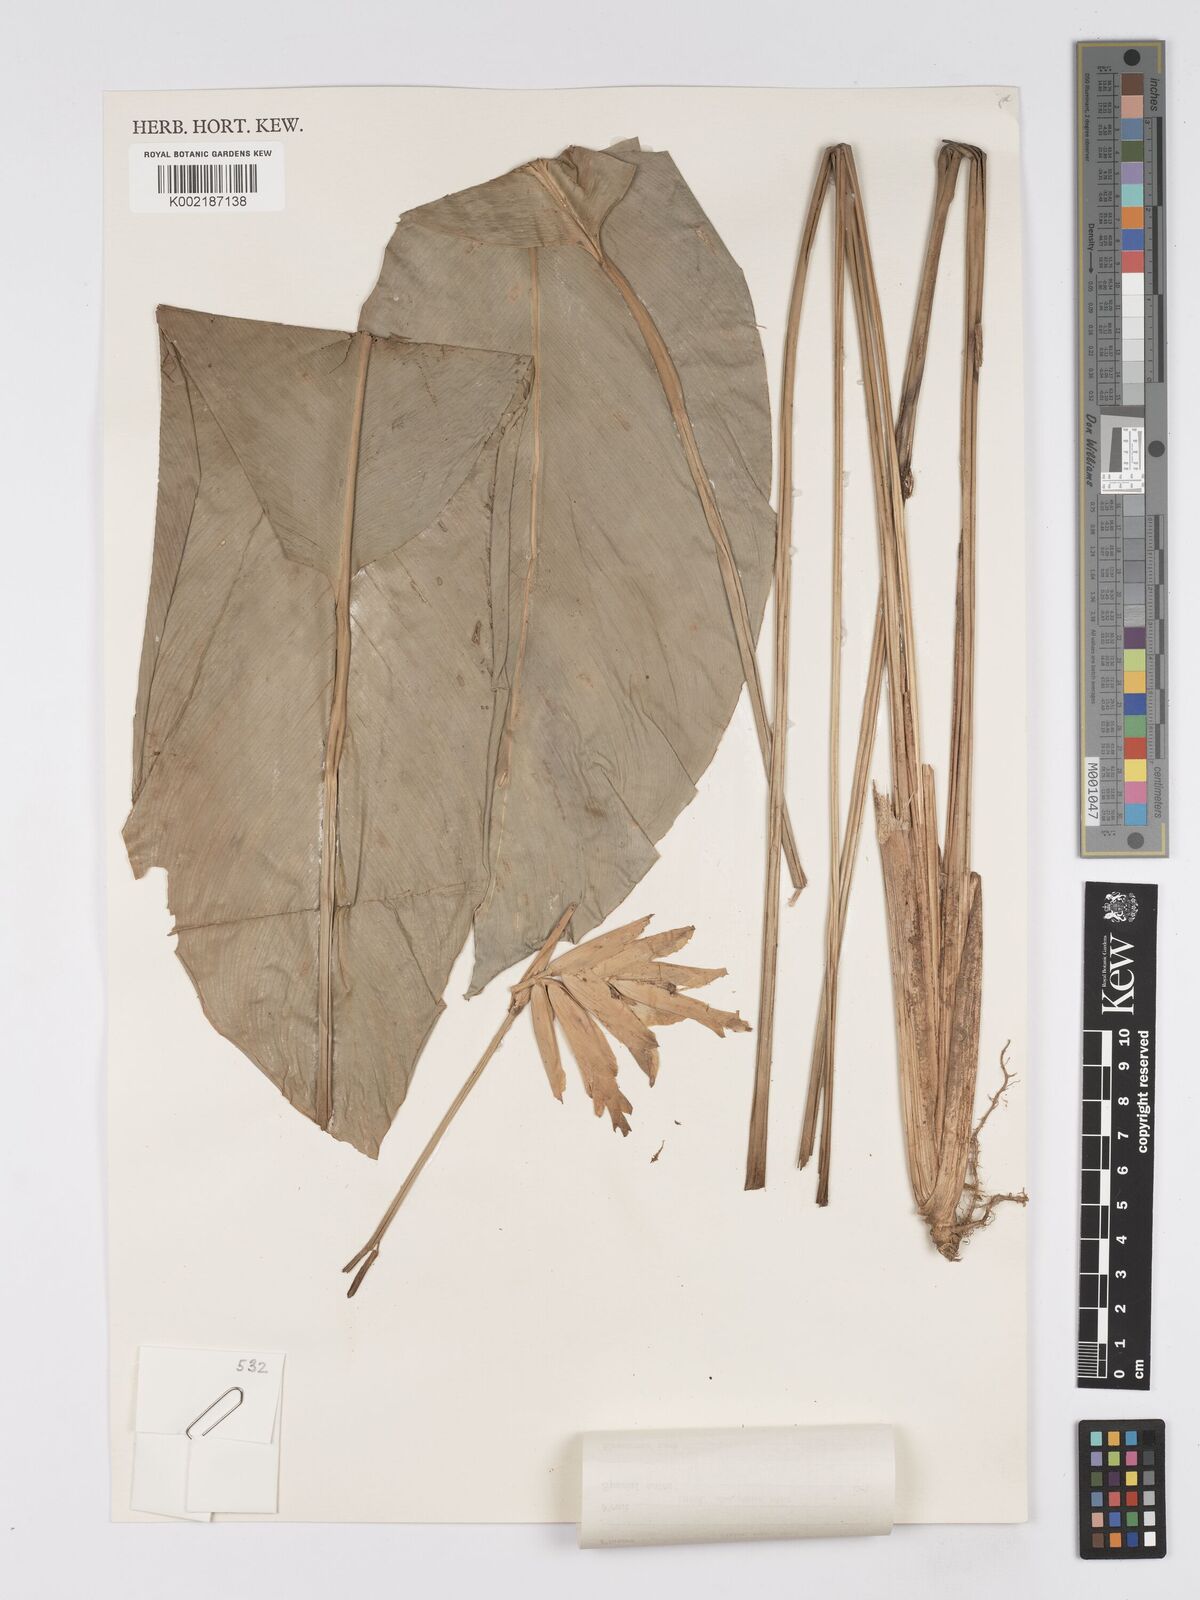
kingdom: Plantae
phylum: Tracheophyta
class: Liliopsida
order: Zingiberales
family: Marantaceae
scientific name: Marantaceae
